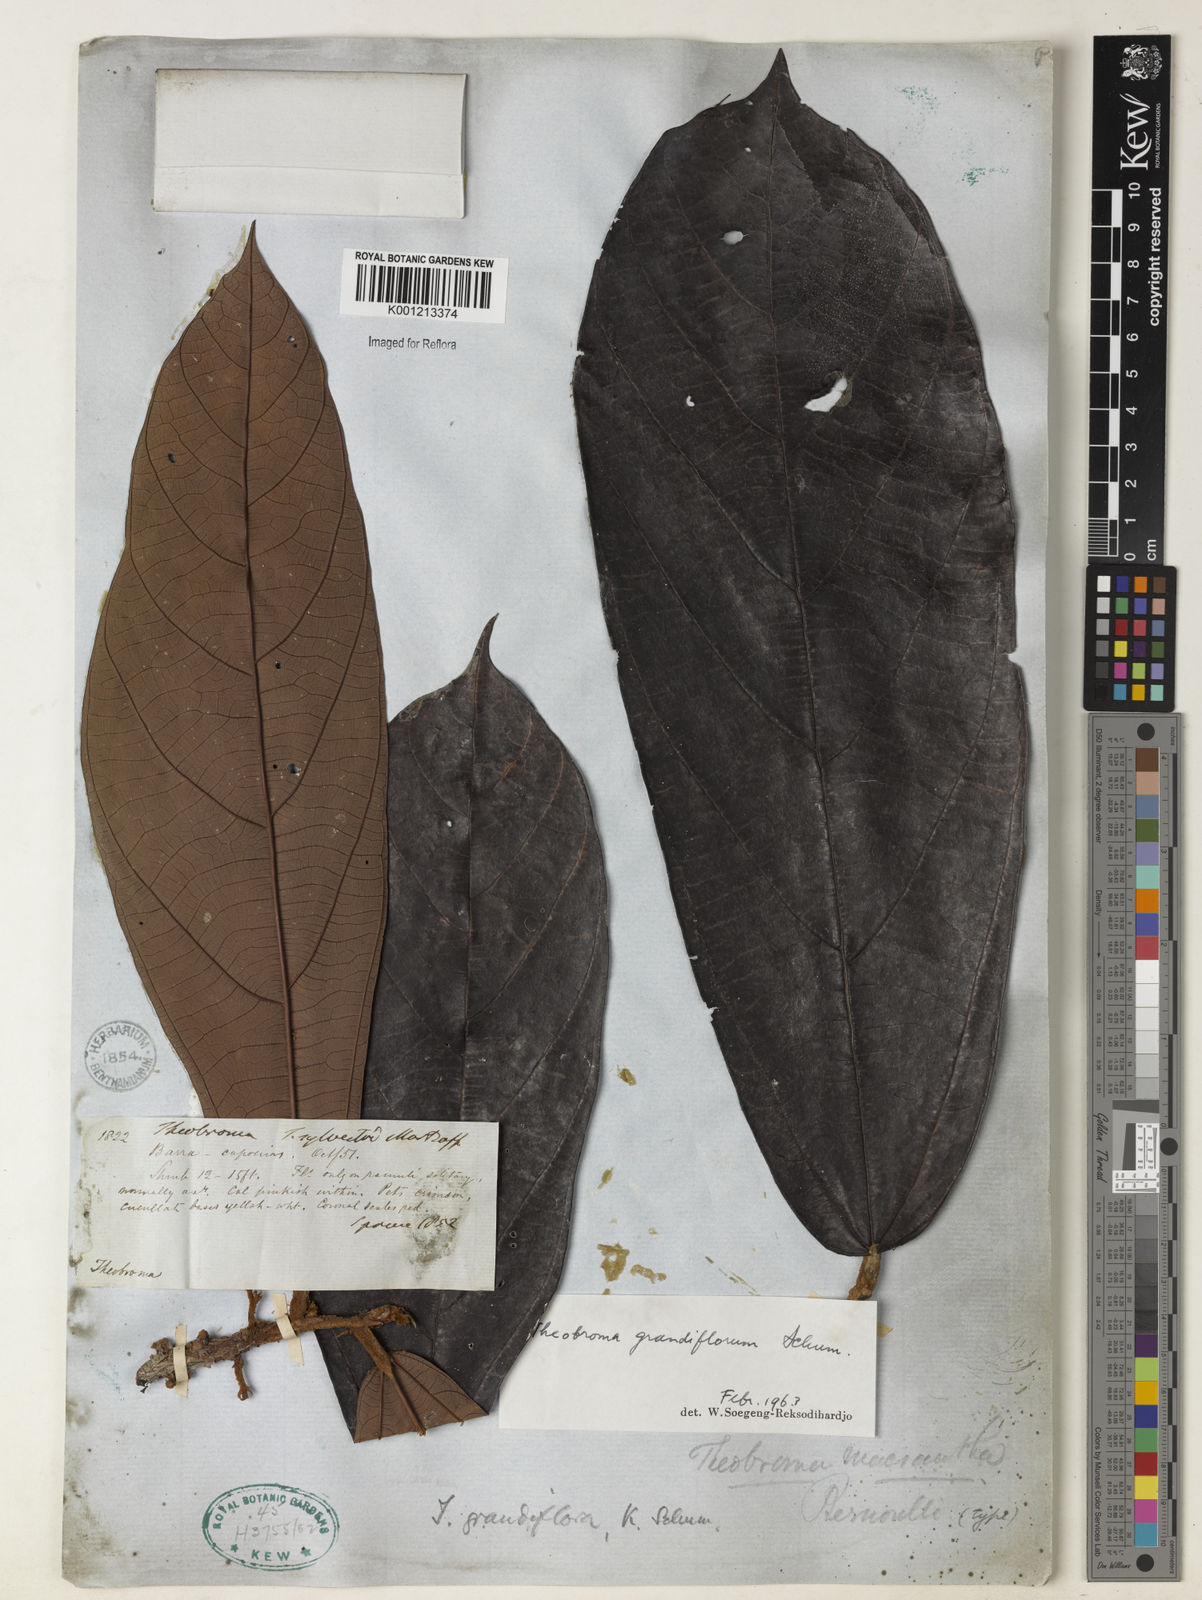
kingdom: Plantae
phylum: Tracheophyta
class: Magnoliopsida
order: Malvales
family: Malvaceae
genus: Theobroma
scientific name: Theobroma grandiflorum
